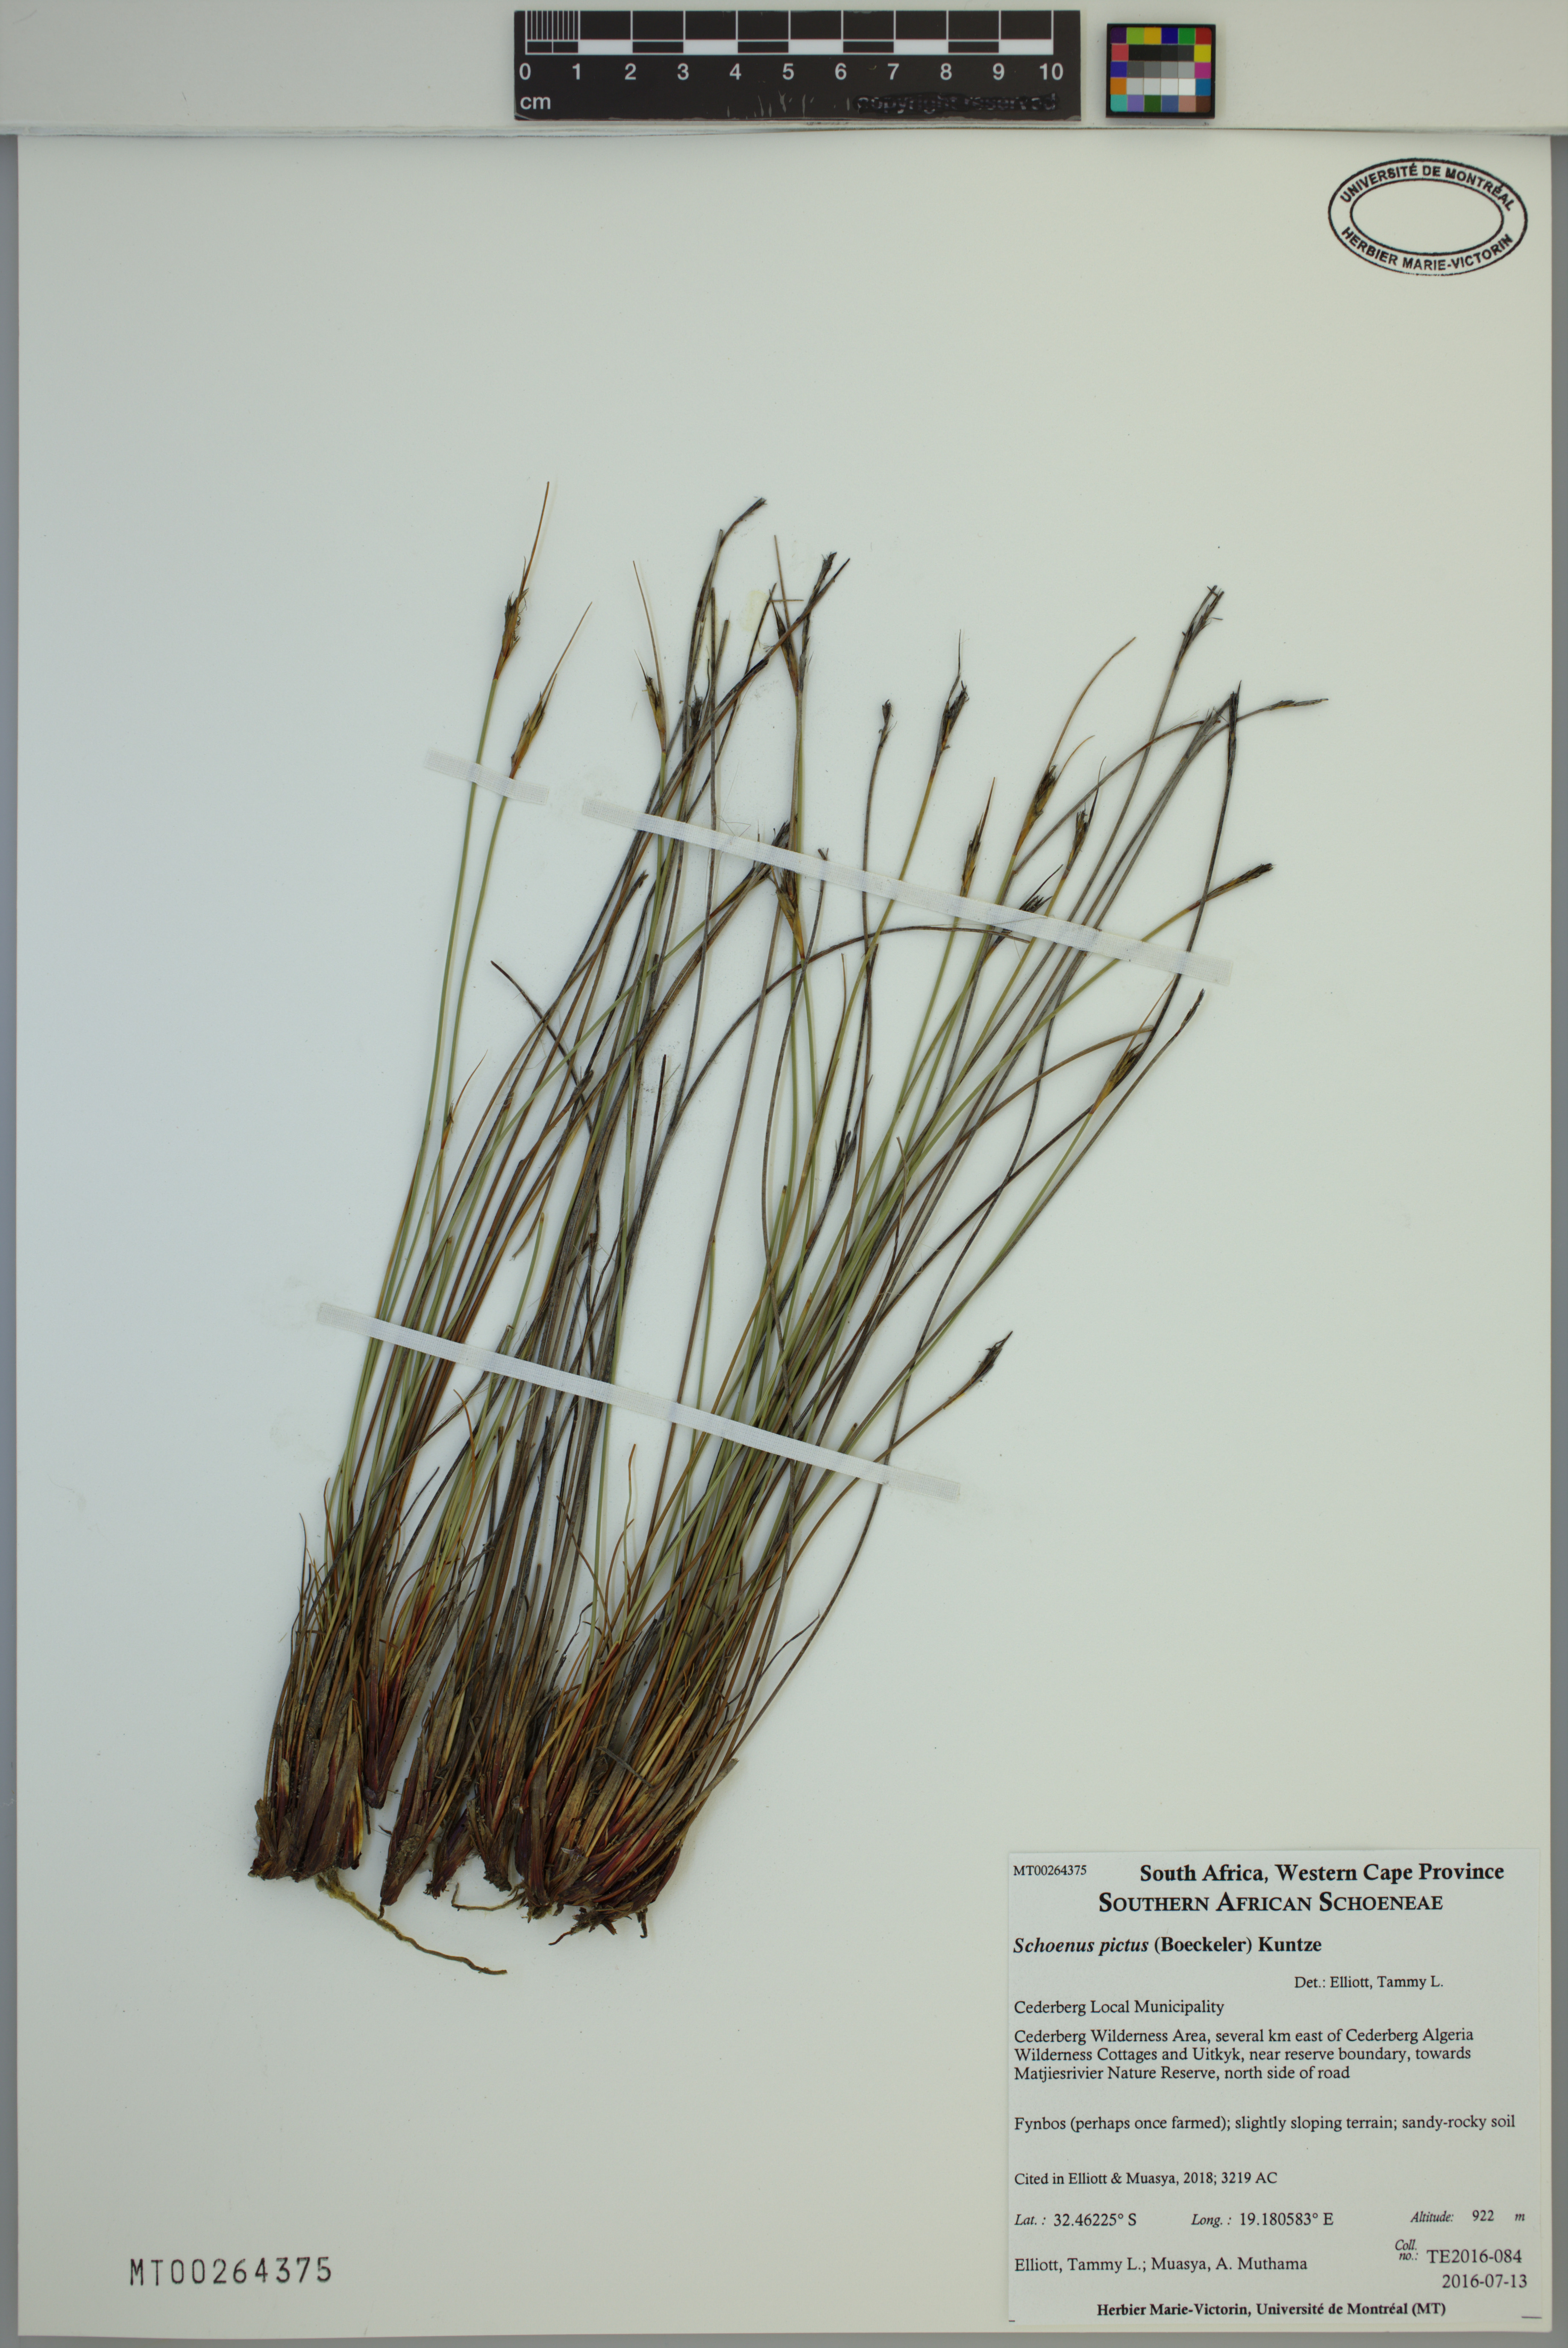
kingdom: Plantae
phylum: Tracheophyta
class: Liliopsida
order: Poales
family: Cyperaceae
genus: Schoenus
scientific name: Schoenus pictus
